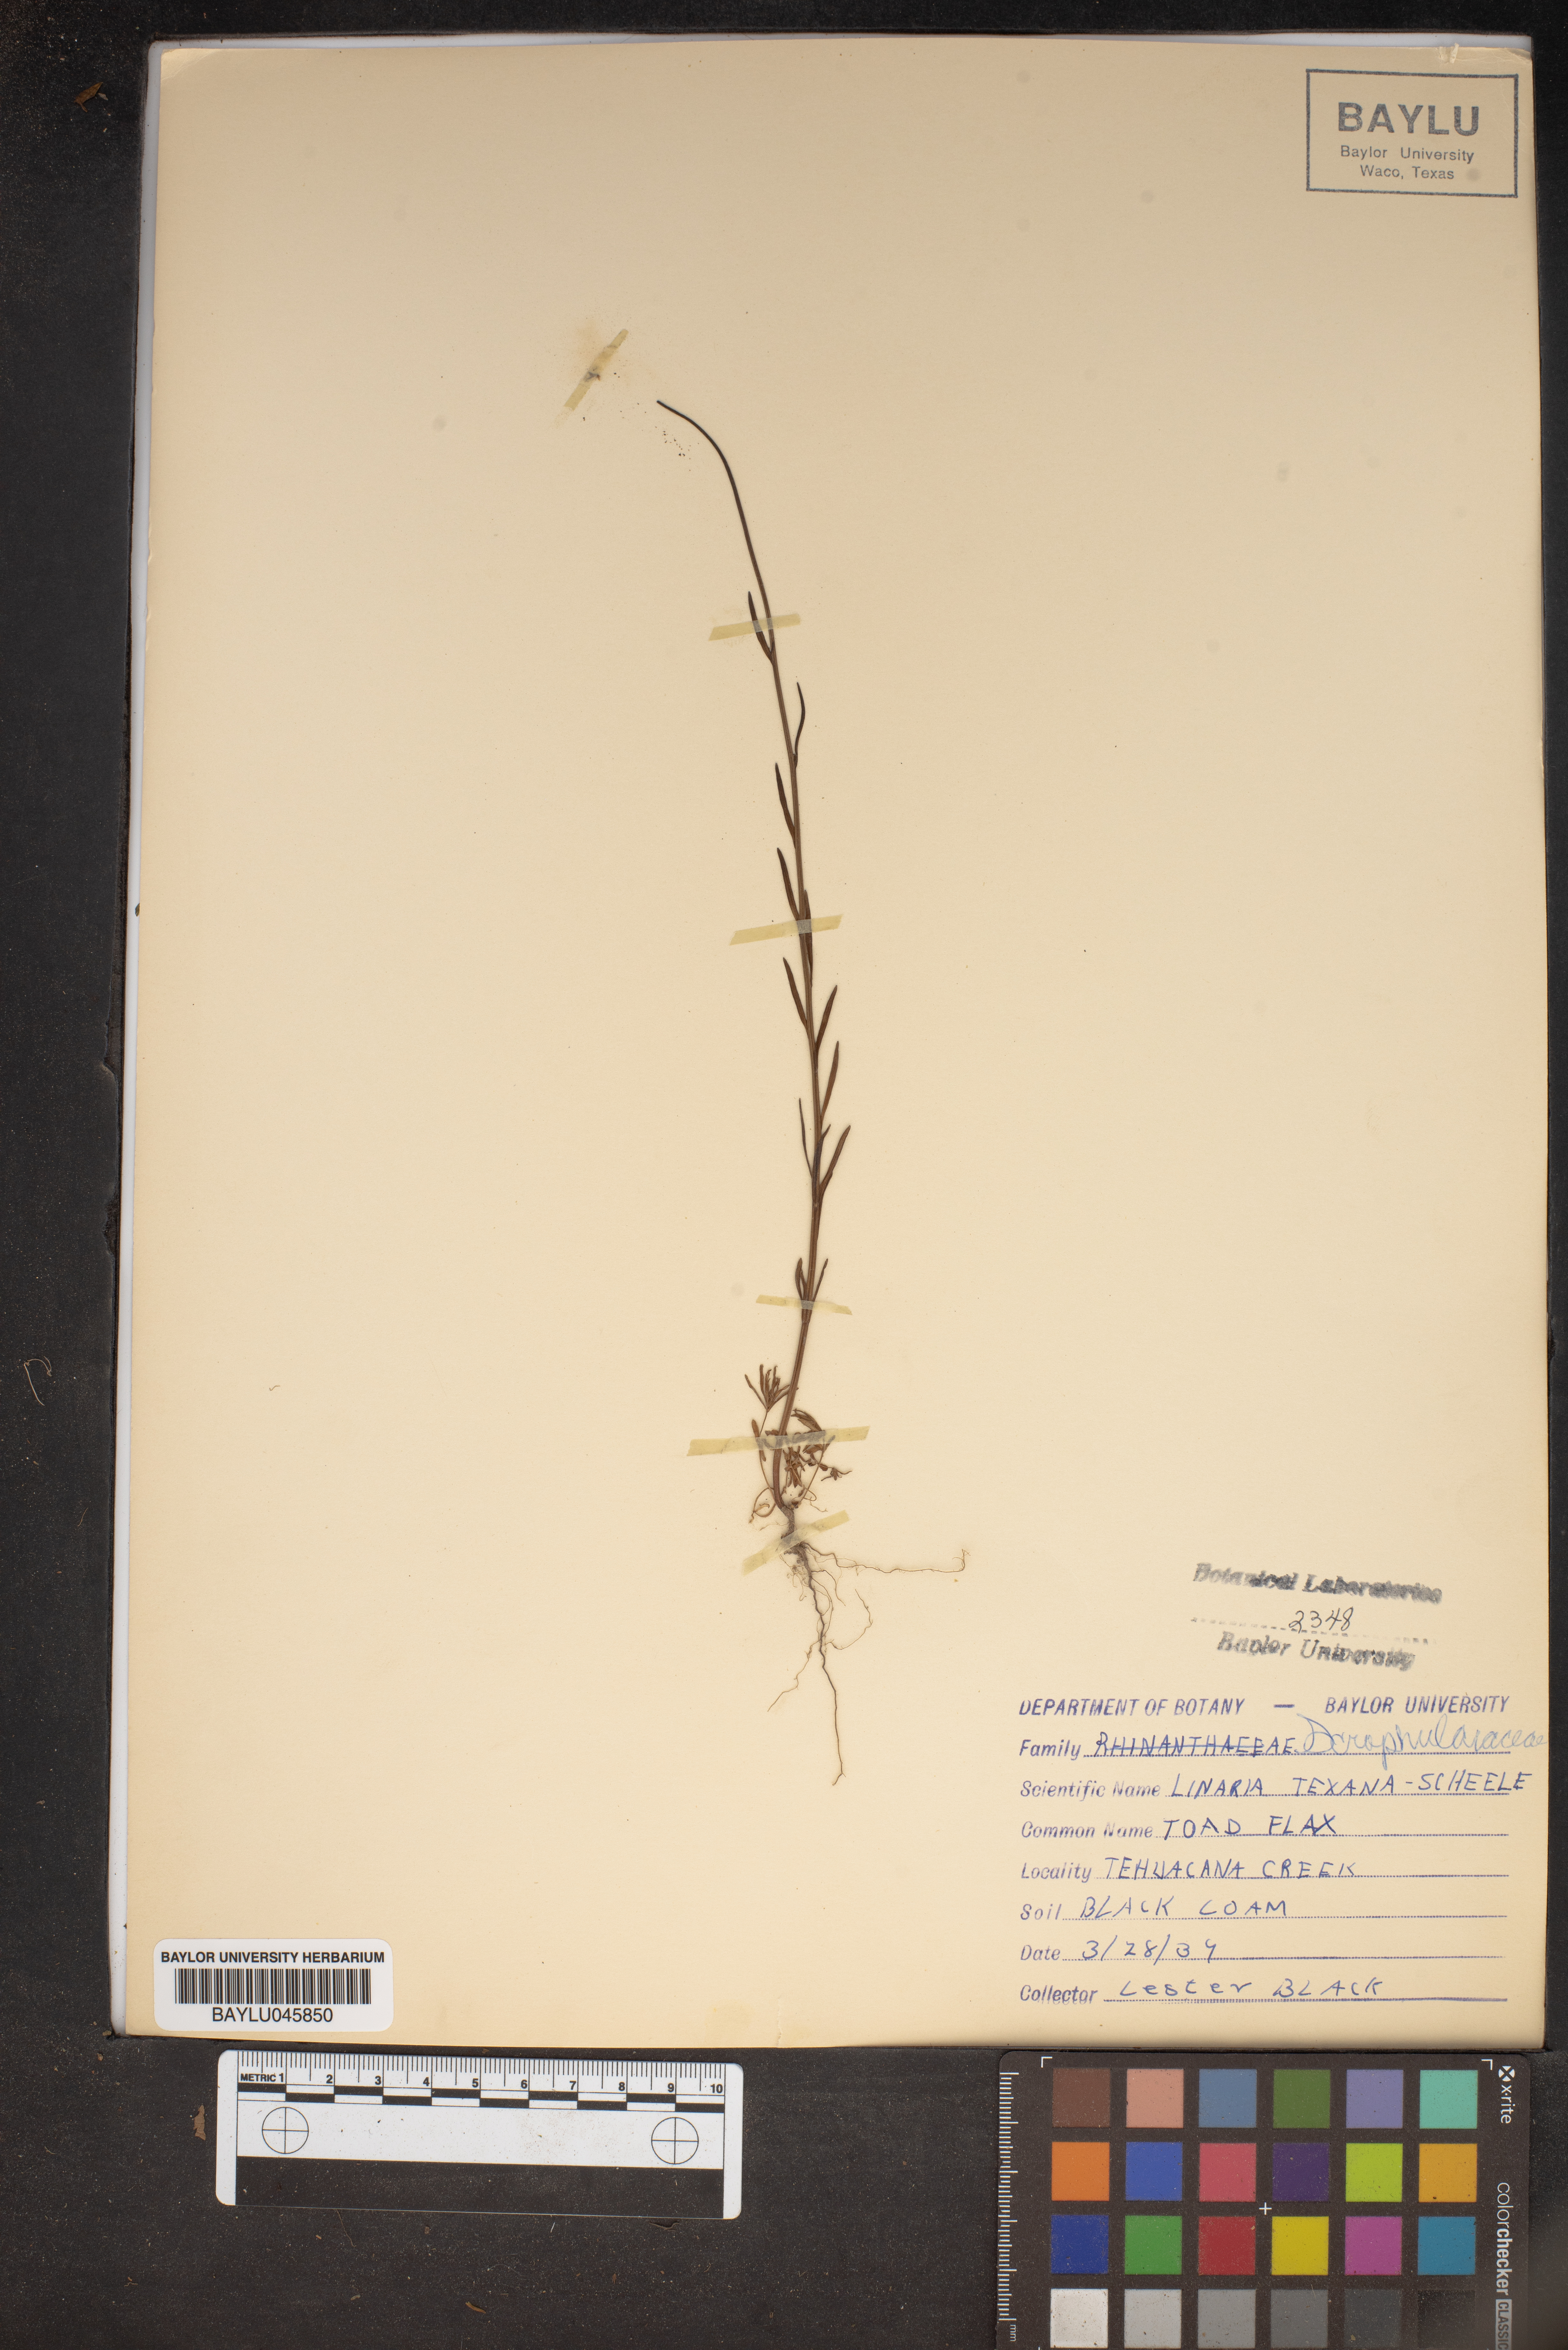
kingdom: Plantae
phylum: Tracheophyta
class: Magnoliopsida
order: Lamiales
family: Plantaginaceae
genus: Nuttallanthus
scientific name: Nuttallanthus texanus
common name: Texas toadflax
